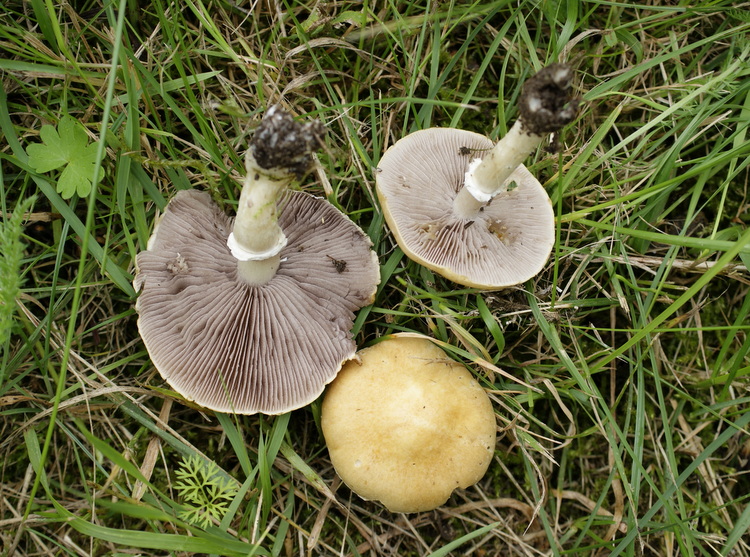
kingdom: Fungi
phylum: Basidiomycota
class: Agaricomycetes
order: Agaricales
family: Hymenogastraceae
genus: Psilocybe
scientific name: Psilocybe coronilla
